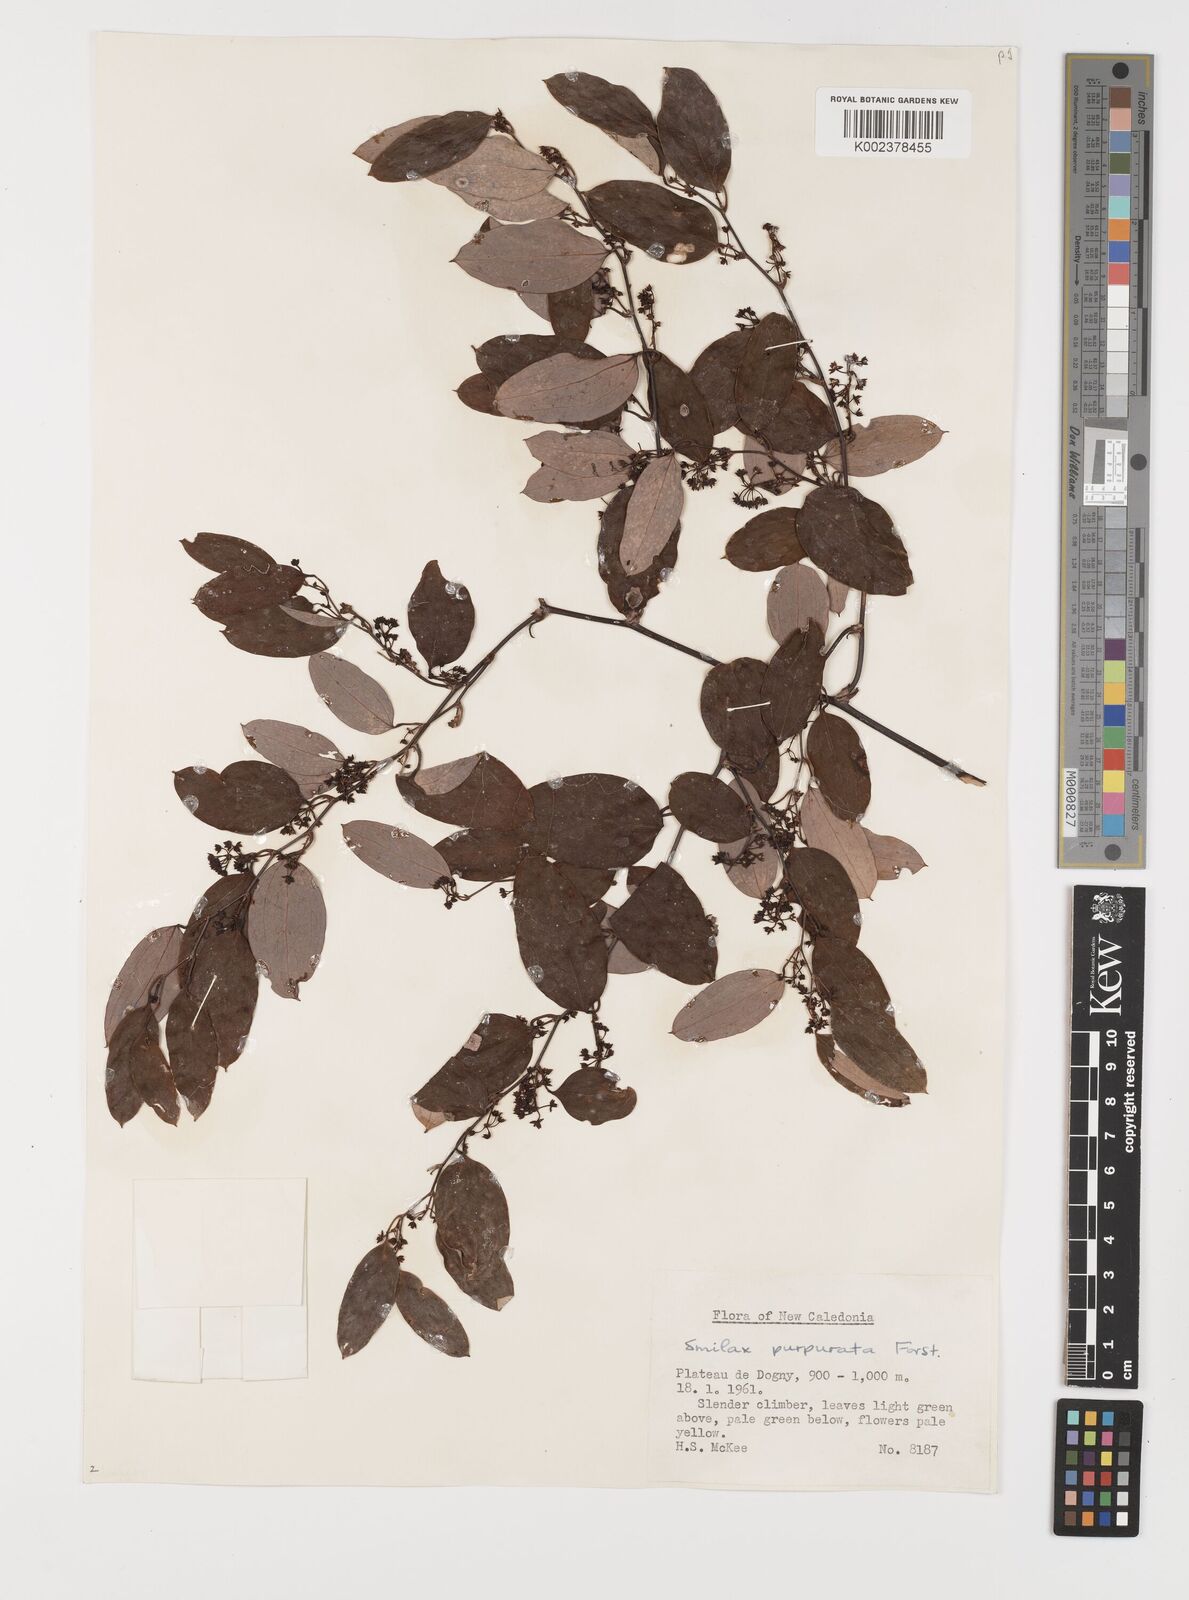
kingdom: Plantae
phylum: Tracheophyta
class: Liliopsida
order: Liliales
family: Smilacaceae
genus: Smilax
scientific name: Smilax purpurata
